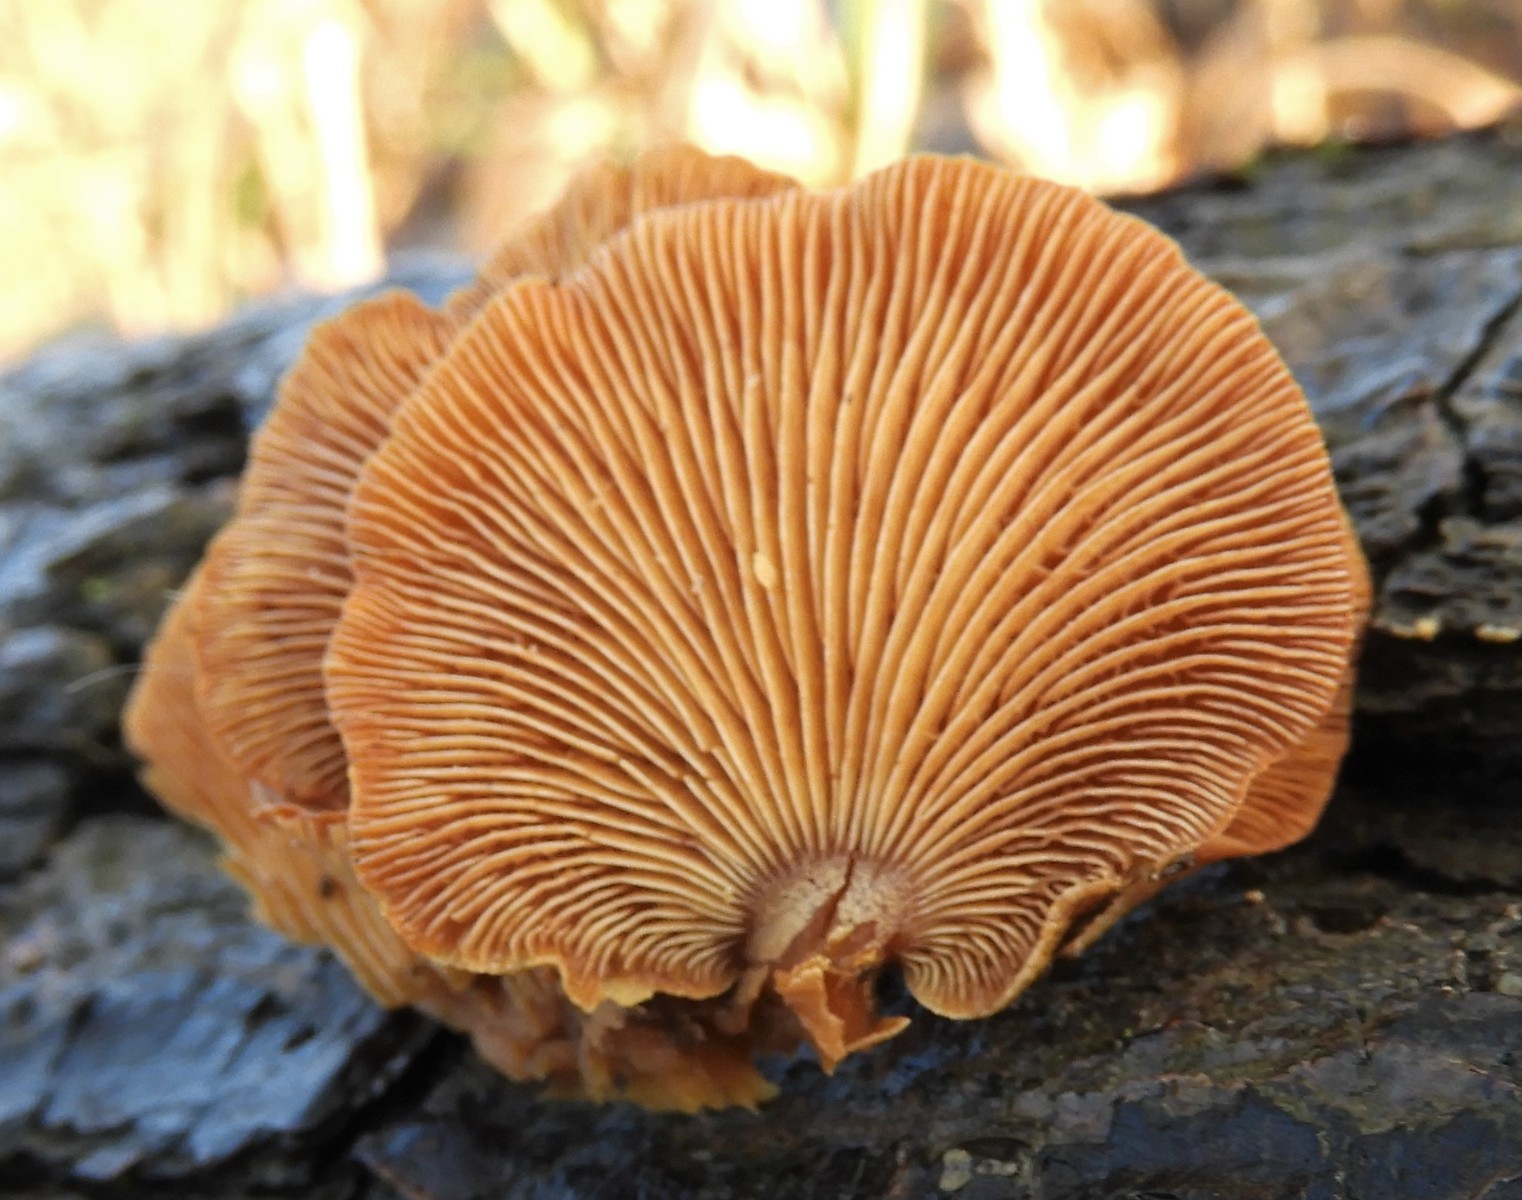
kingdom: Fungi
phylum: Basidiomycota
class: Agaricomycetes
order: Agaricales
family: Mycenaceae
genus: Panellus
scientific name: Panellus stipticus
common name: kliddet epaulethat
